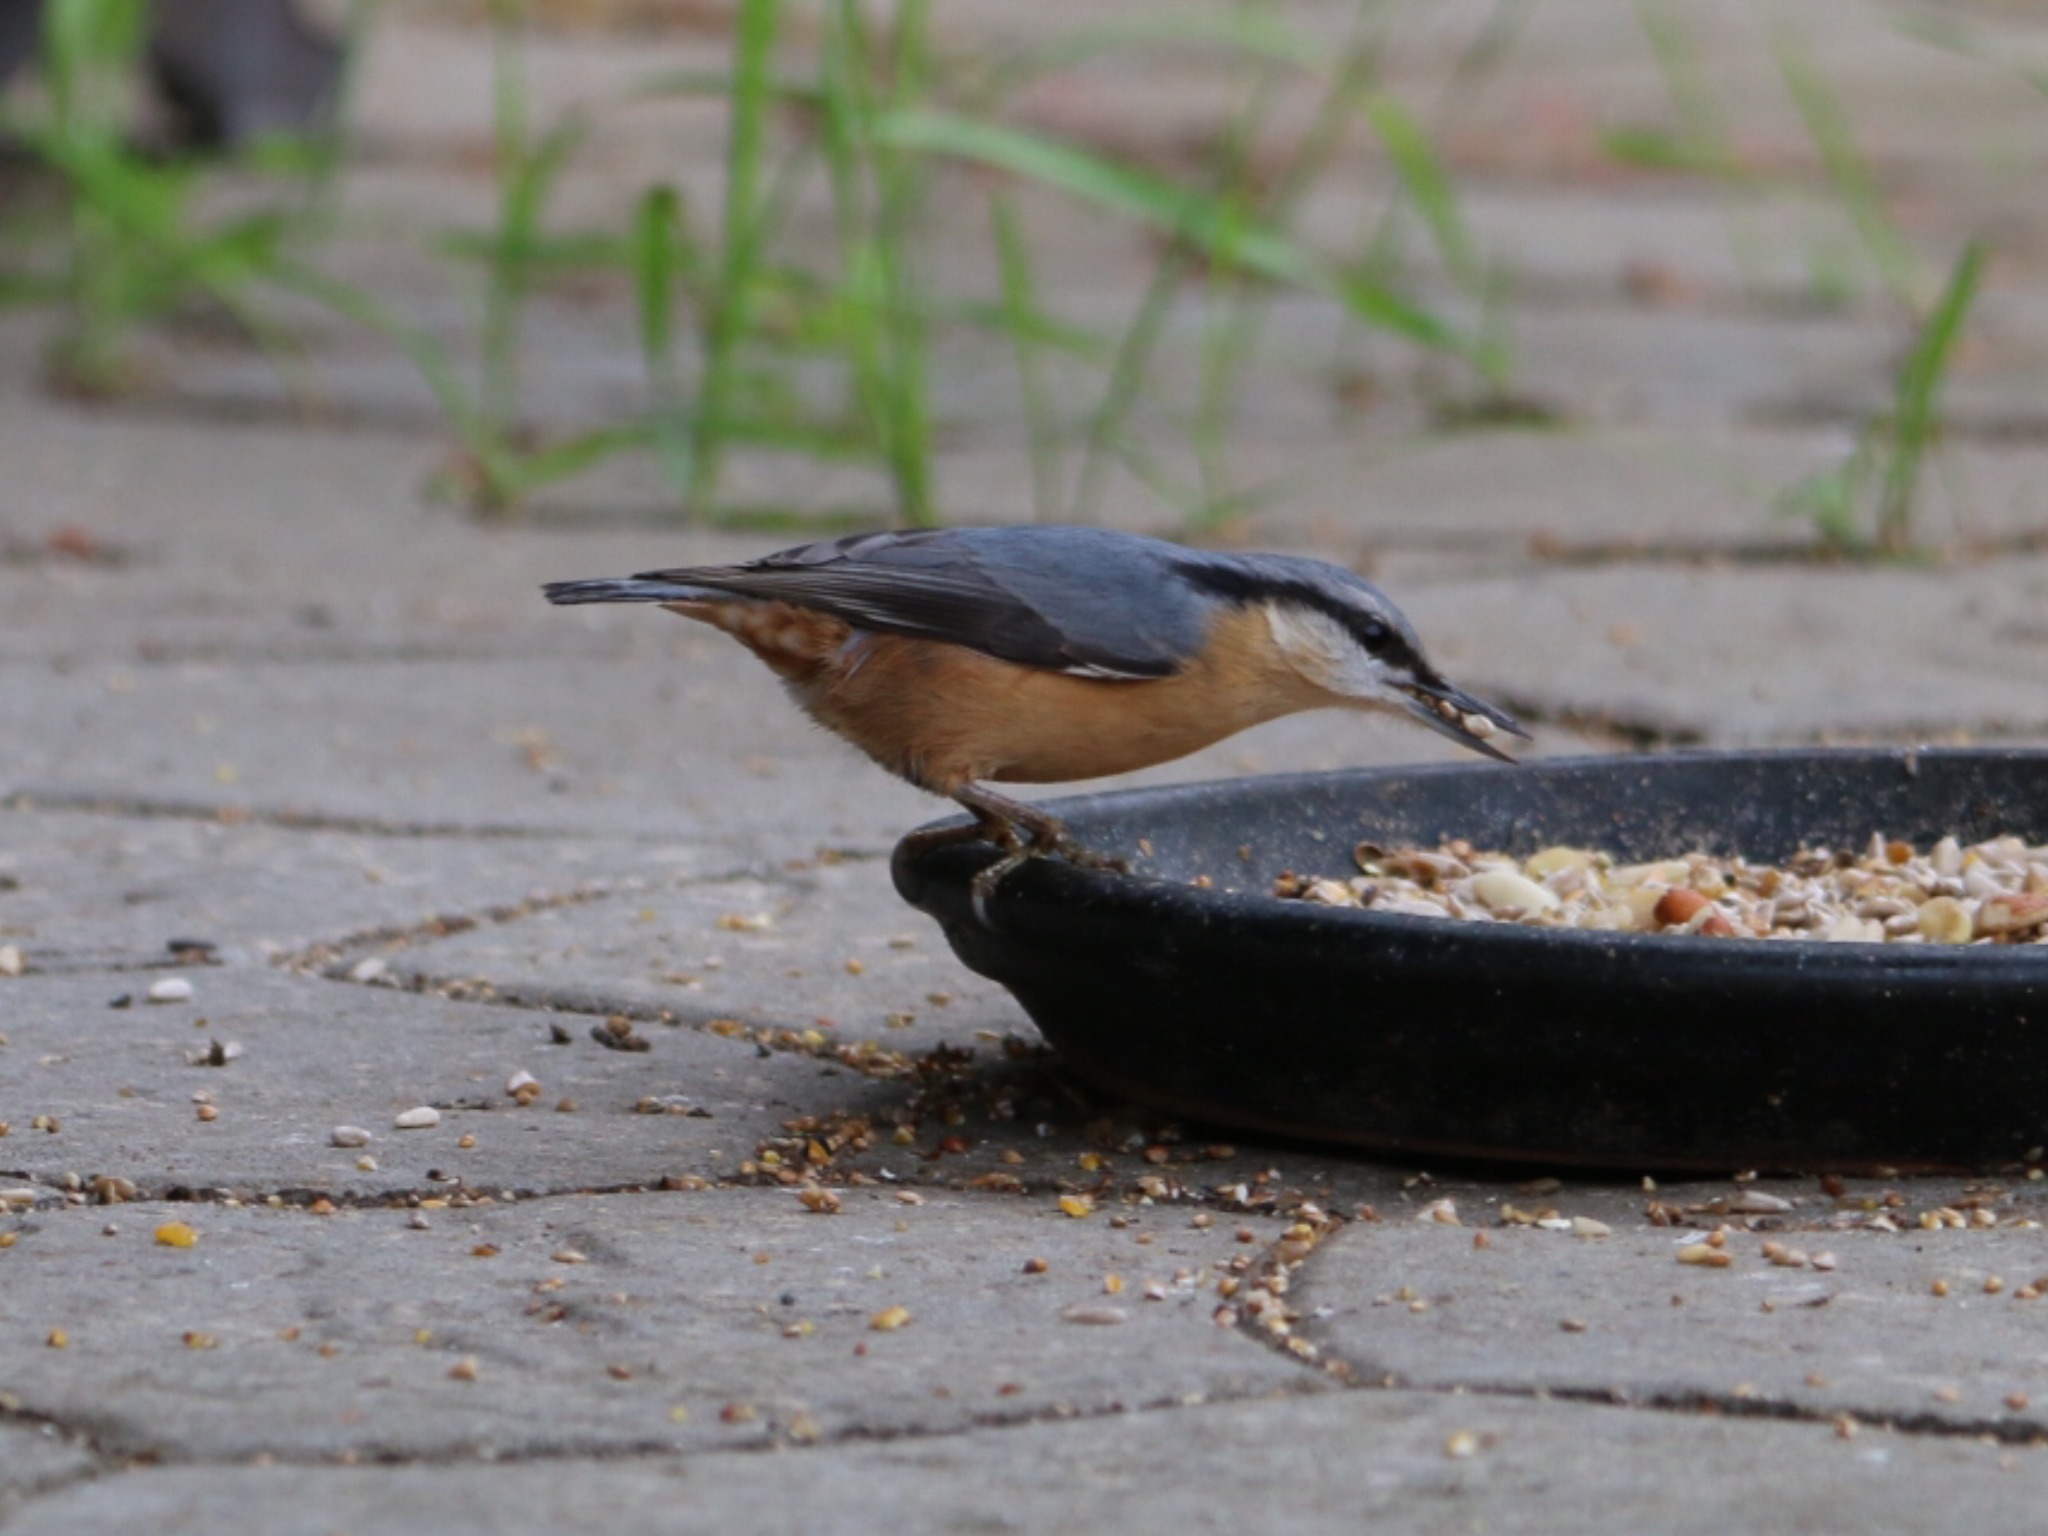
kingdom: Animalia
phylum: Chordata
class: Aves
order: Passeriformes
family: Sittidae
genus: Sitta
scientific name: Sitta europaea
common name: Spætmejse
